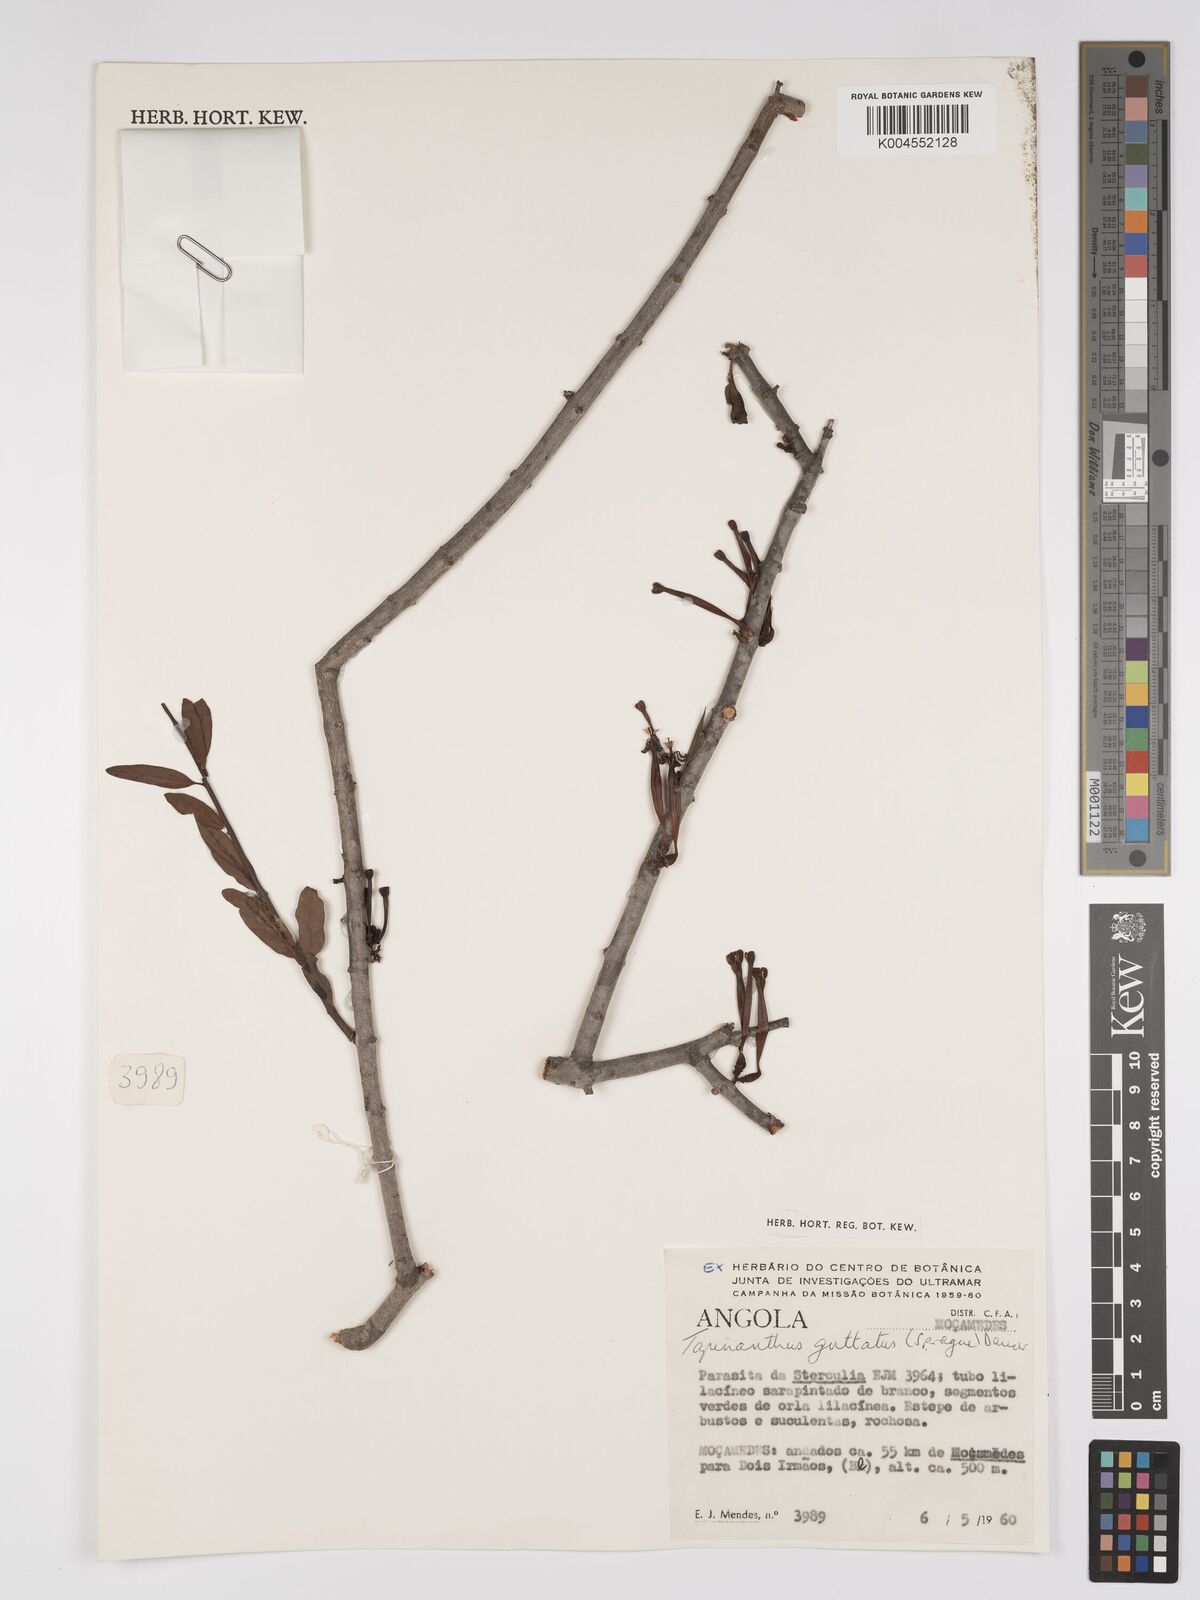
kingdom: Plantae
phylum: Tracheophyta
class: Magnoliopsida
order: Santalales
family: Loranthaceae
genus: Tapinanthus
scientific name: Tapinanthus forbesii
